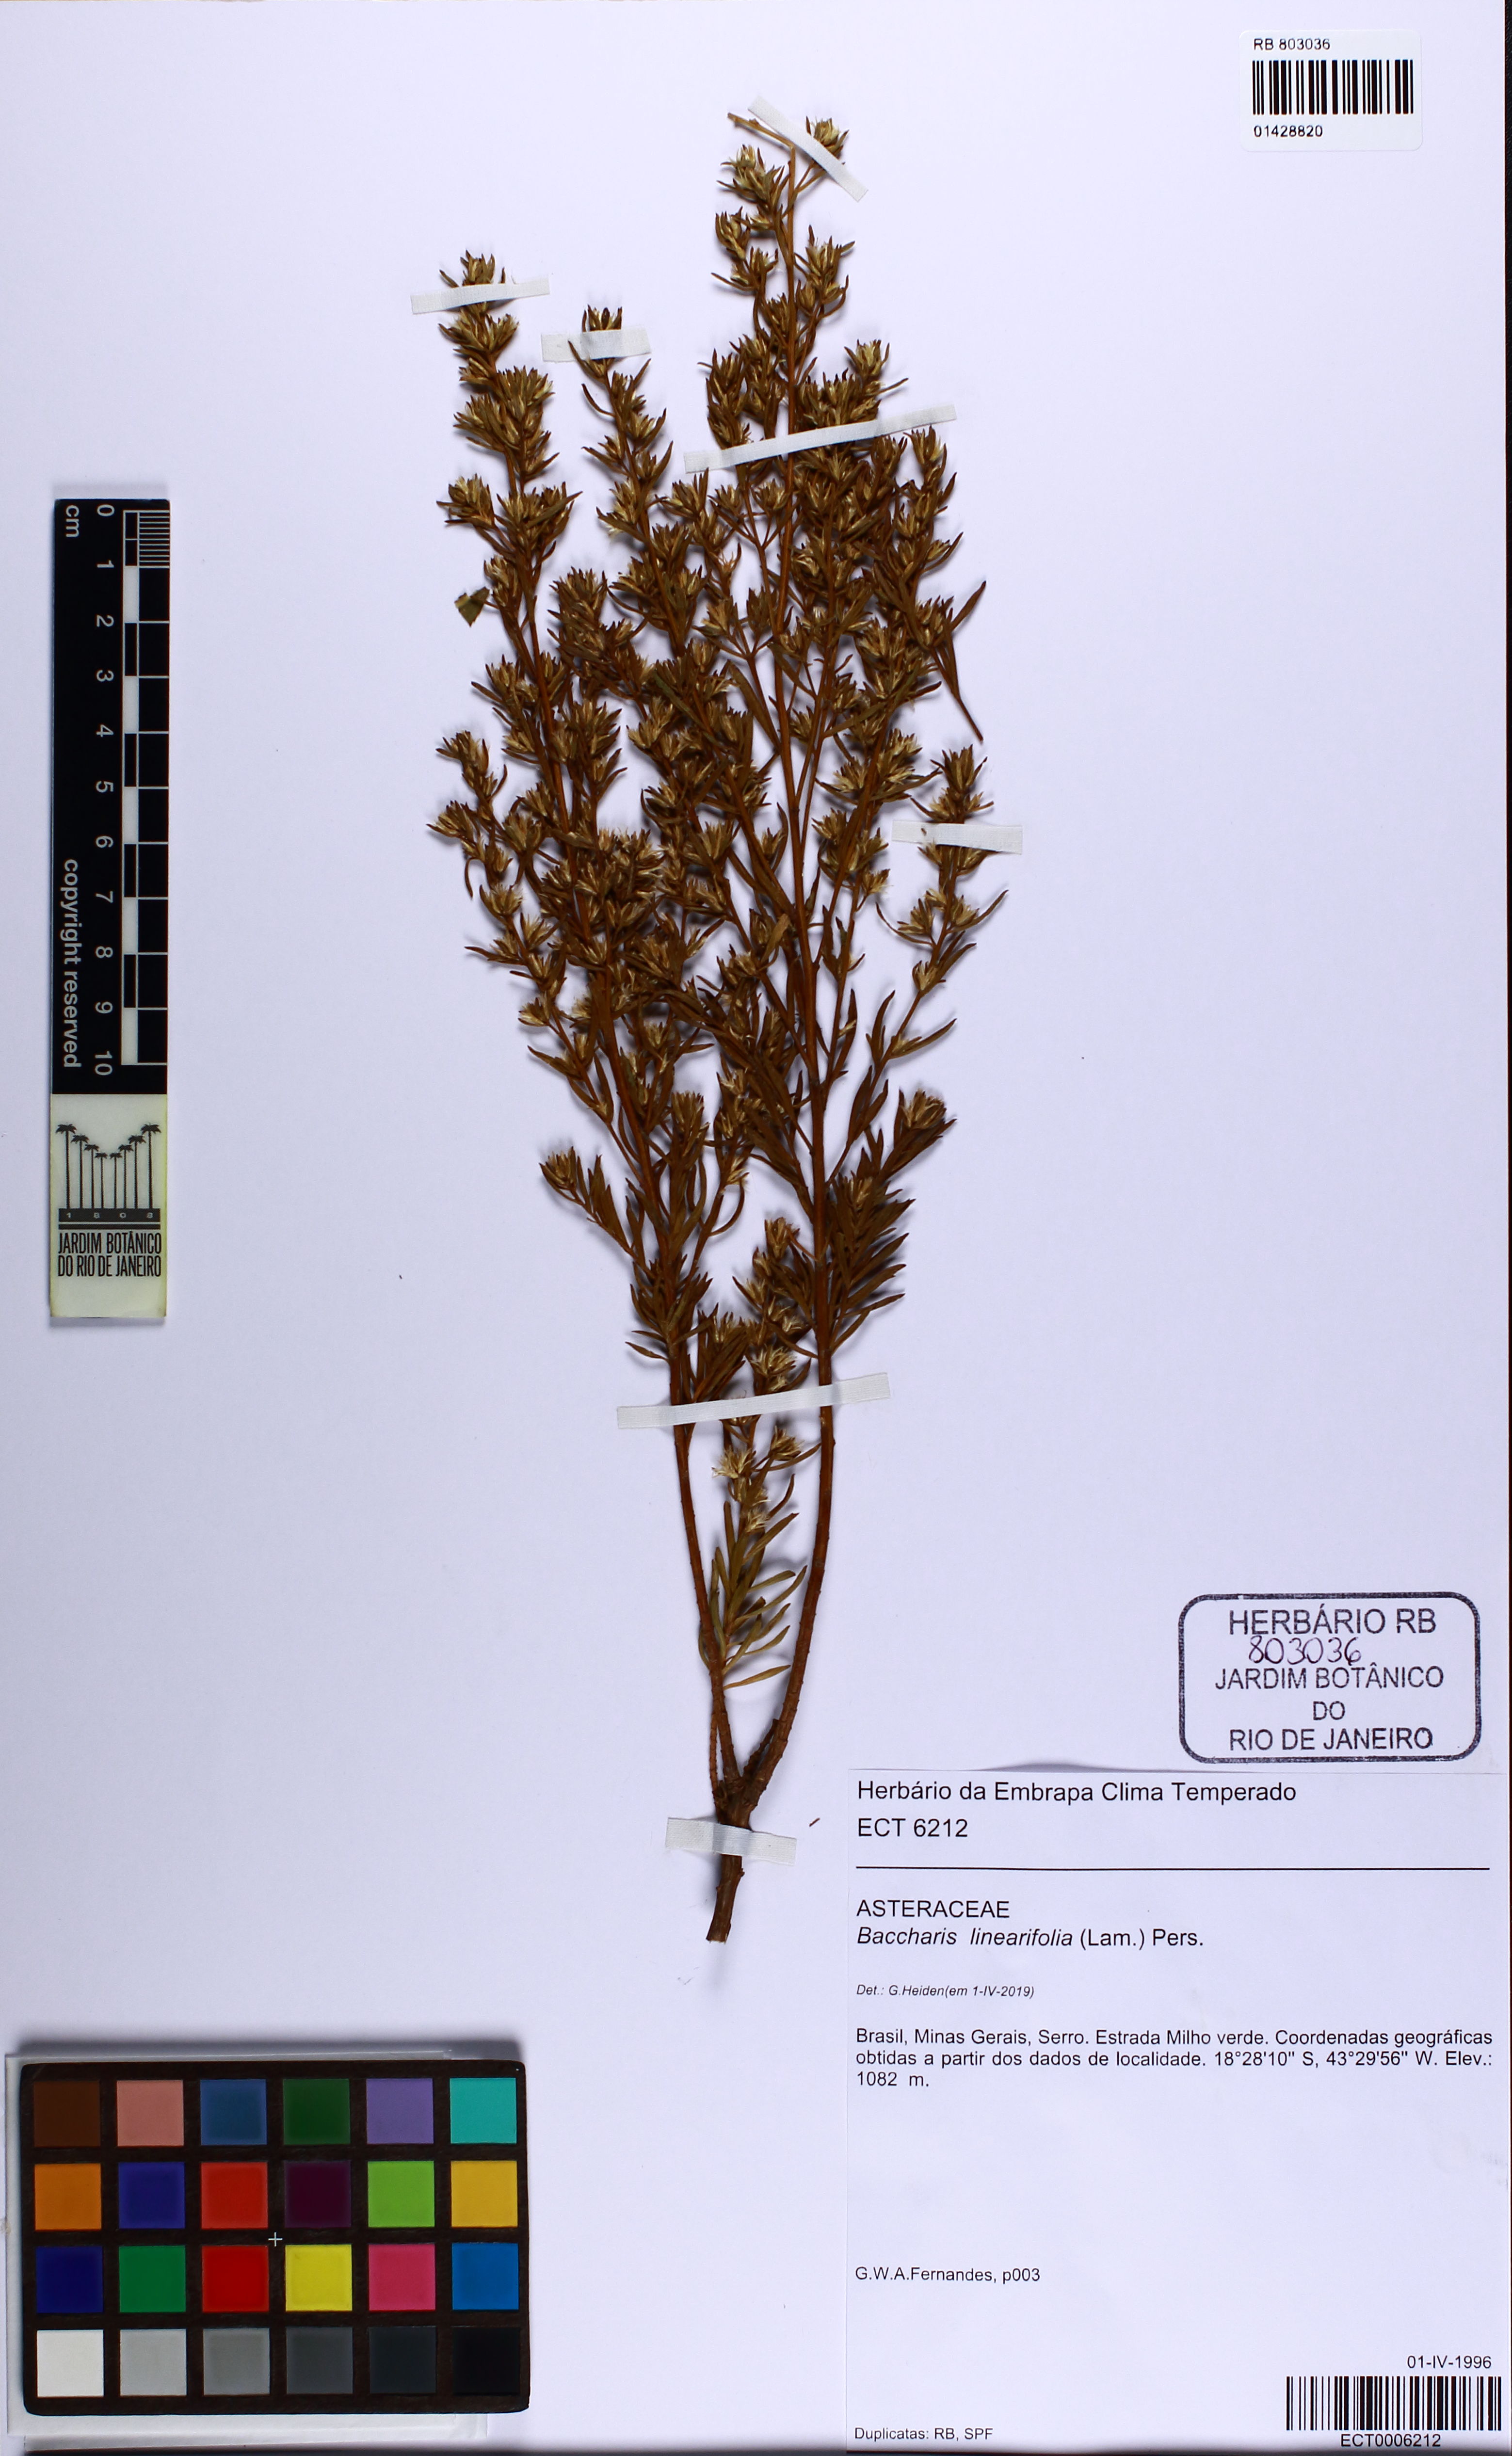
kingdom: Plantae
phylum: Tracheophyta
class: Magnoliopsida
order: Asterales
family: Asteraceae
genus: Baccharis
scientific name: Baccharis linearifolia
